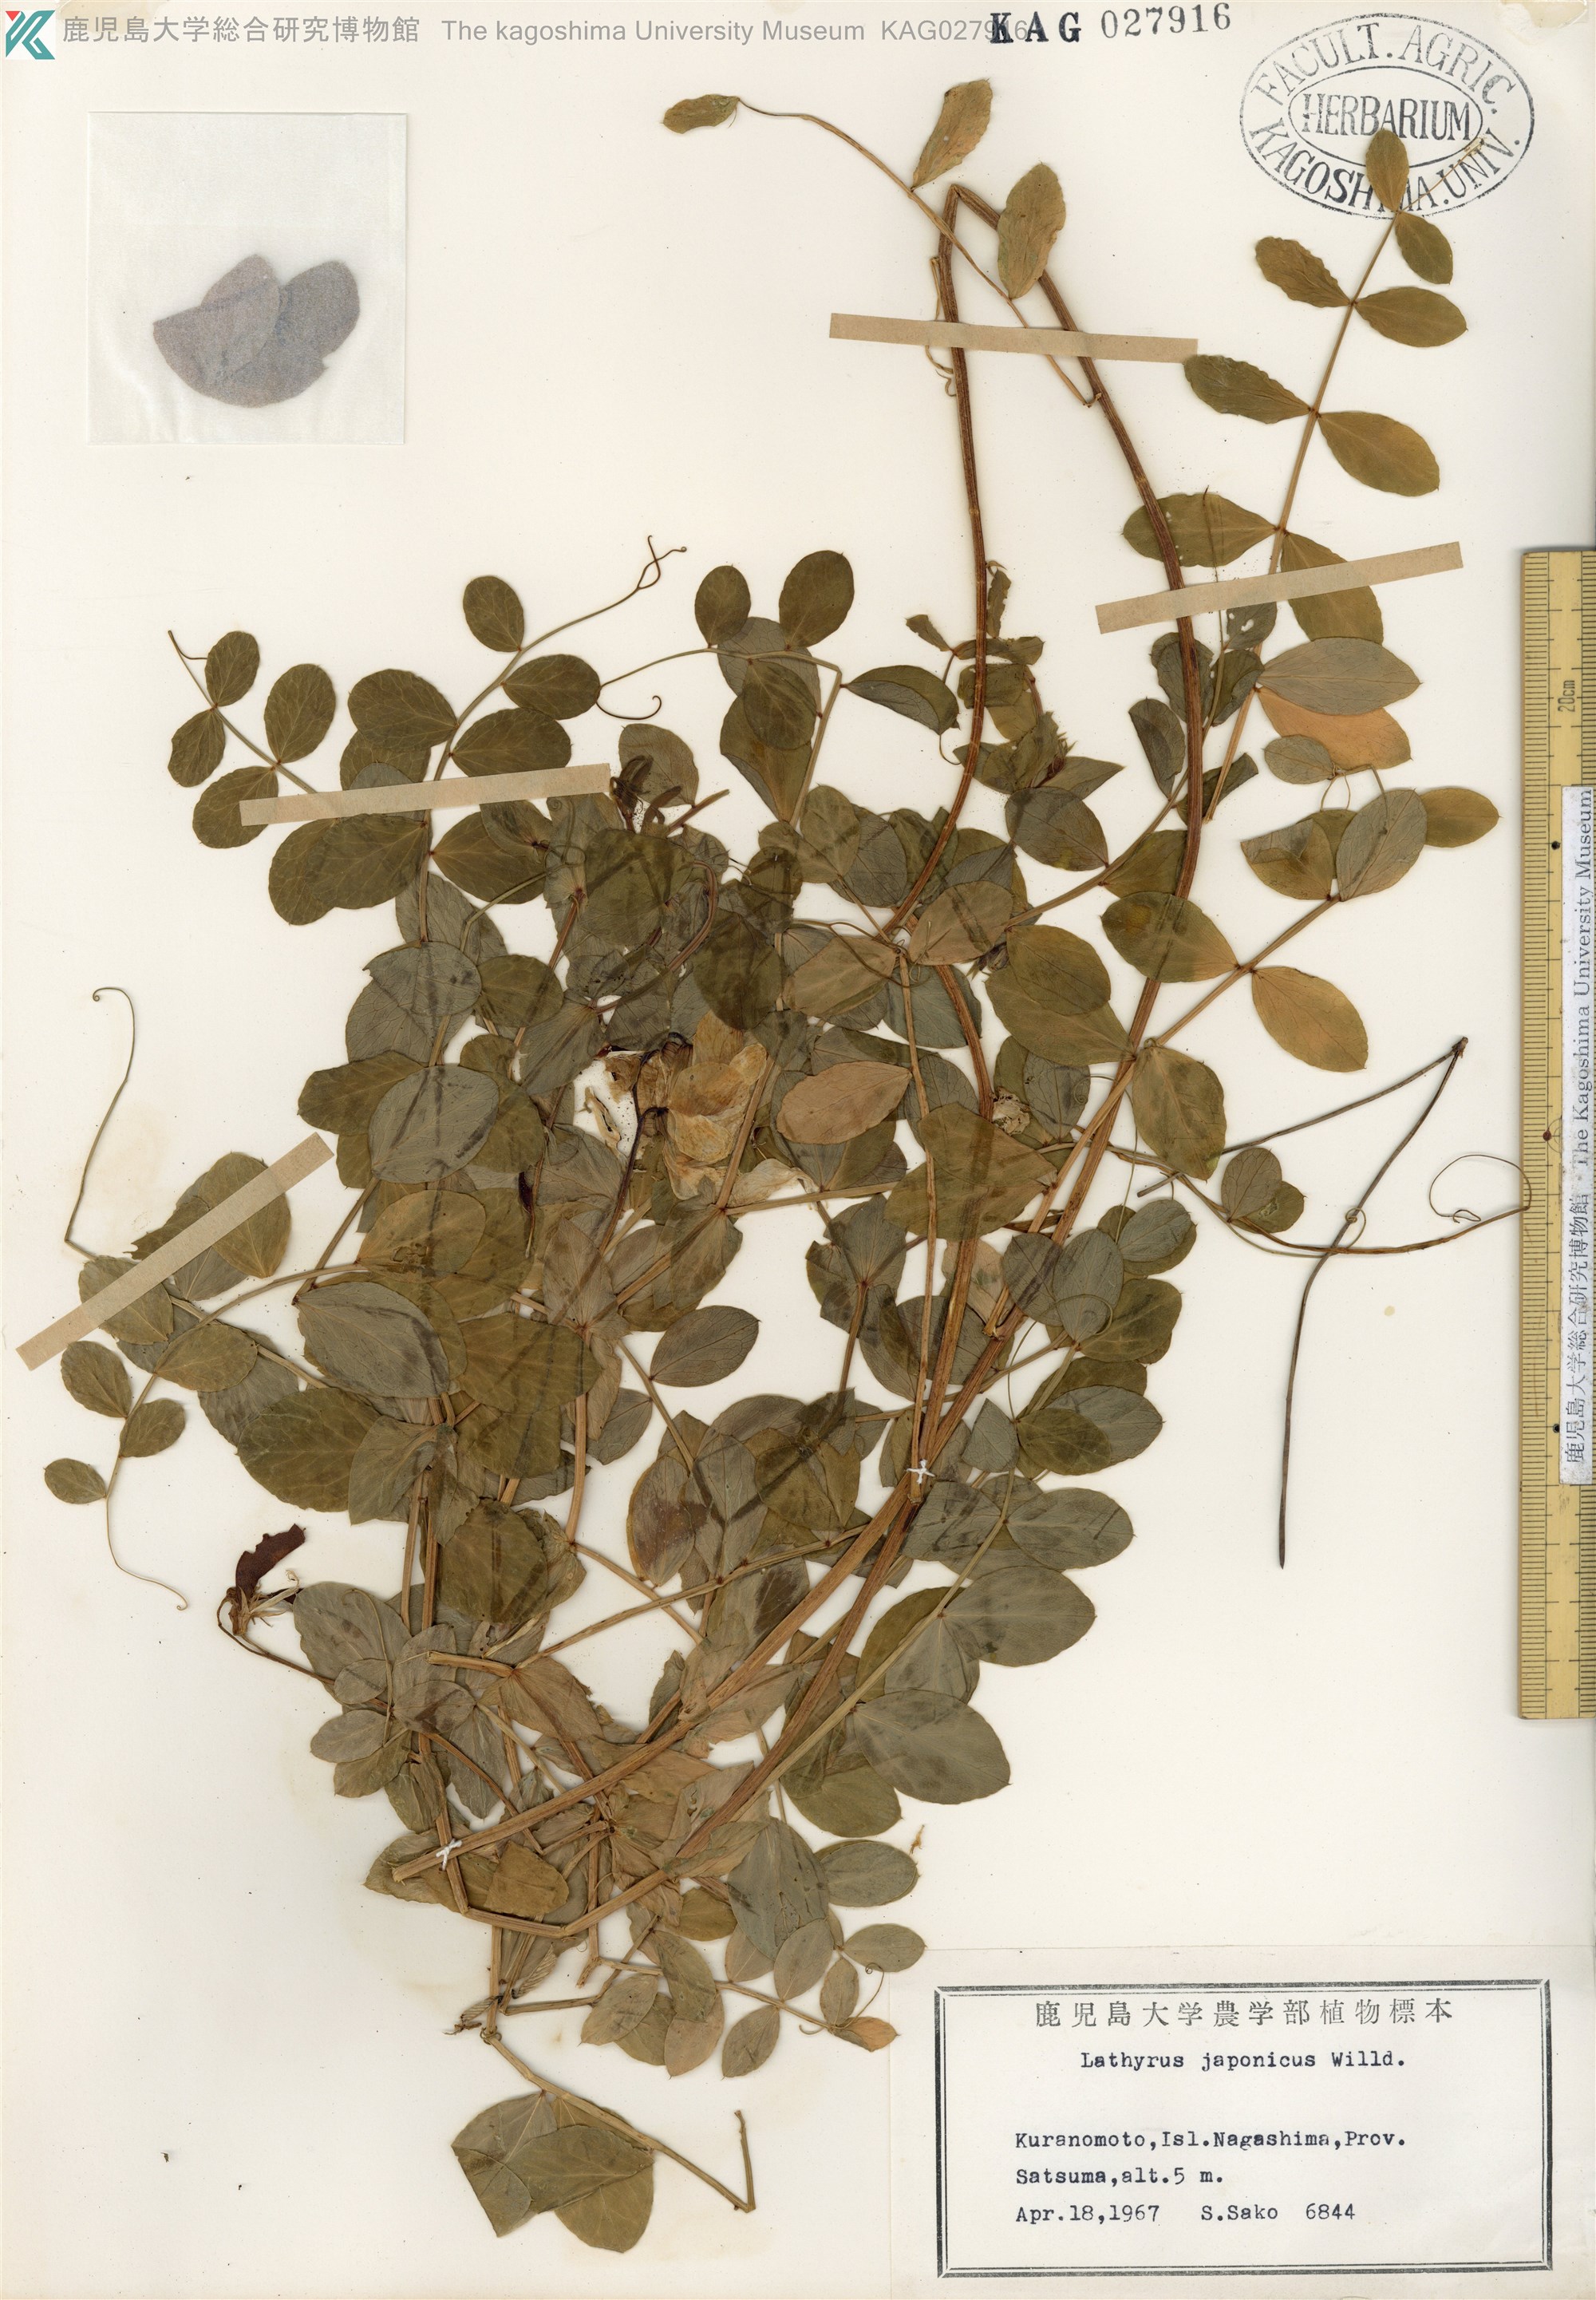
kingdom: Plantae
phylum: Tracheophyta
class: Magnoliopsida
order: Fabales
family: Fabaceae
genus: Lathyrus
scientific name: Lathyrus japonicus
